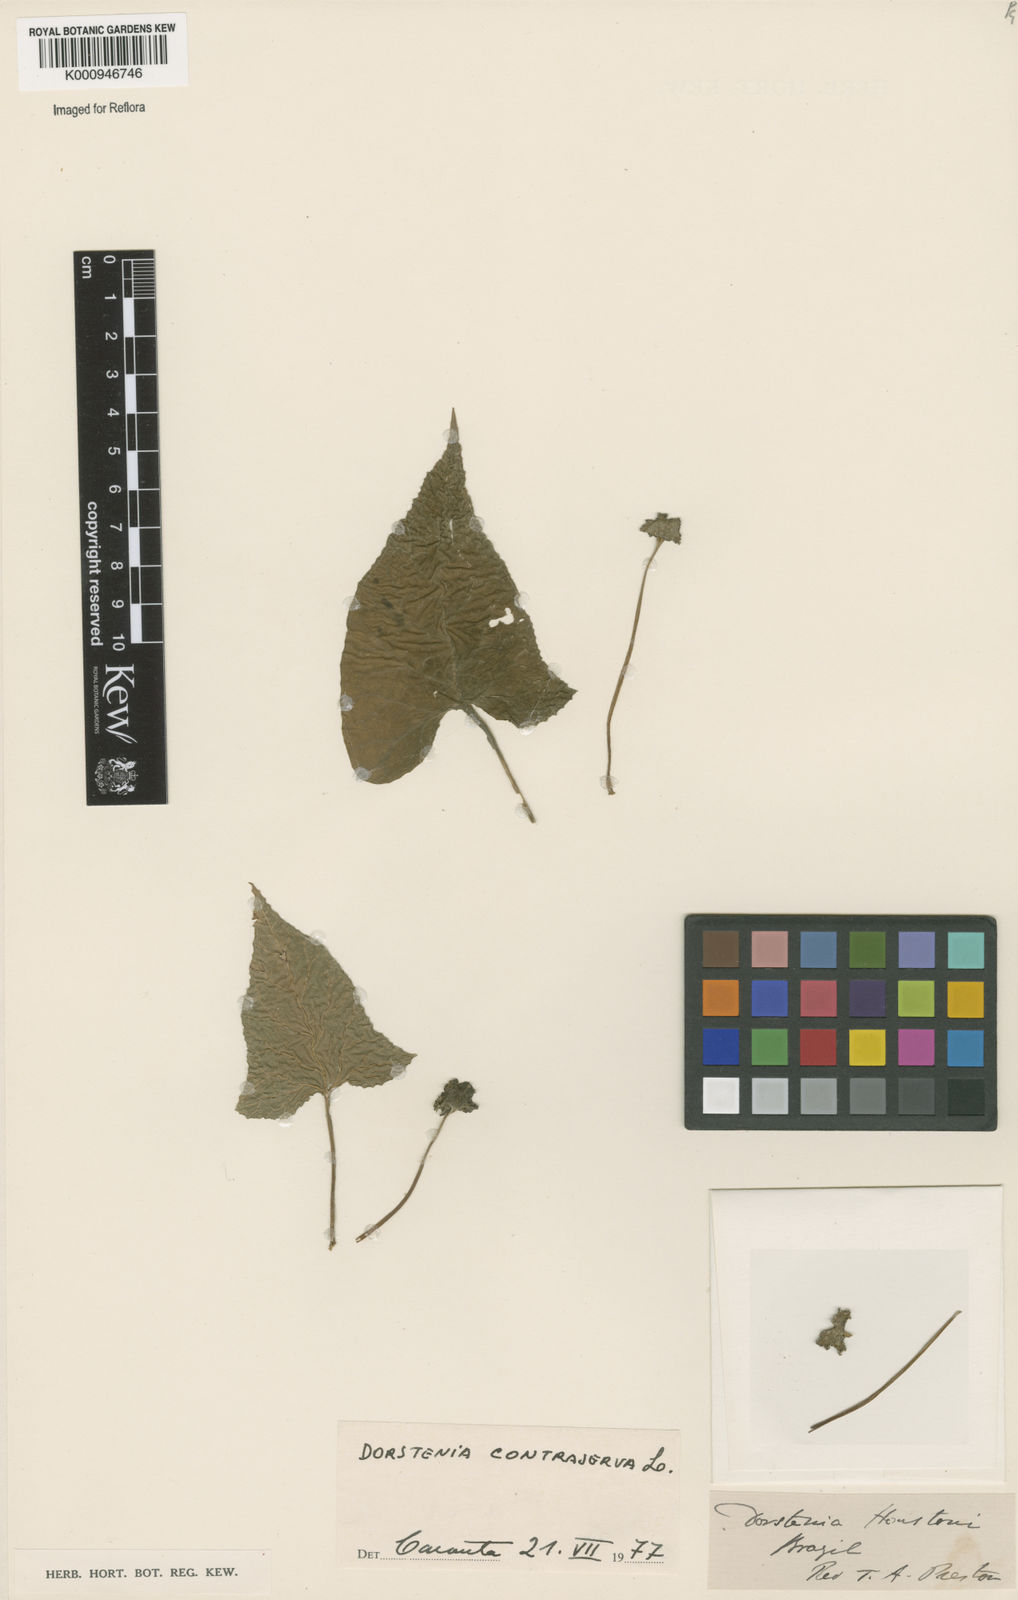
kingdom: Plantae
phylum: Tracheophyta
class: Magnoliopsida
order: Rosales
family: Moraceae
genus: Dorstenia
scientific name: Dorstenia contrajerva
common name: Tusilla
